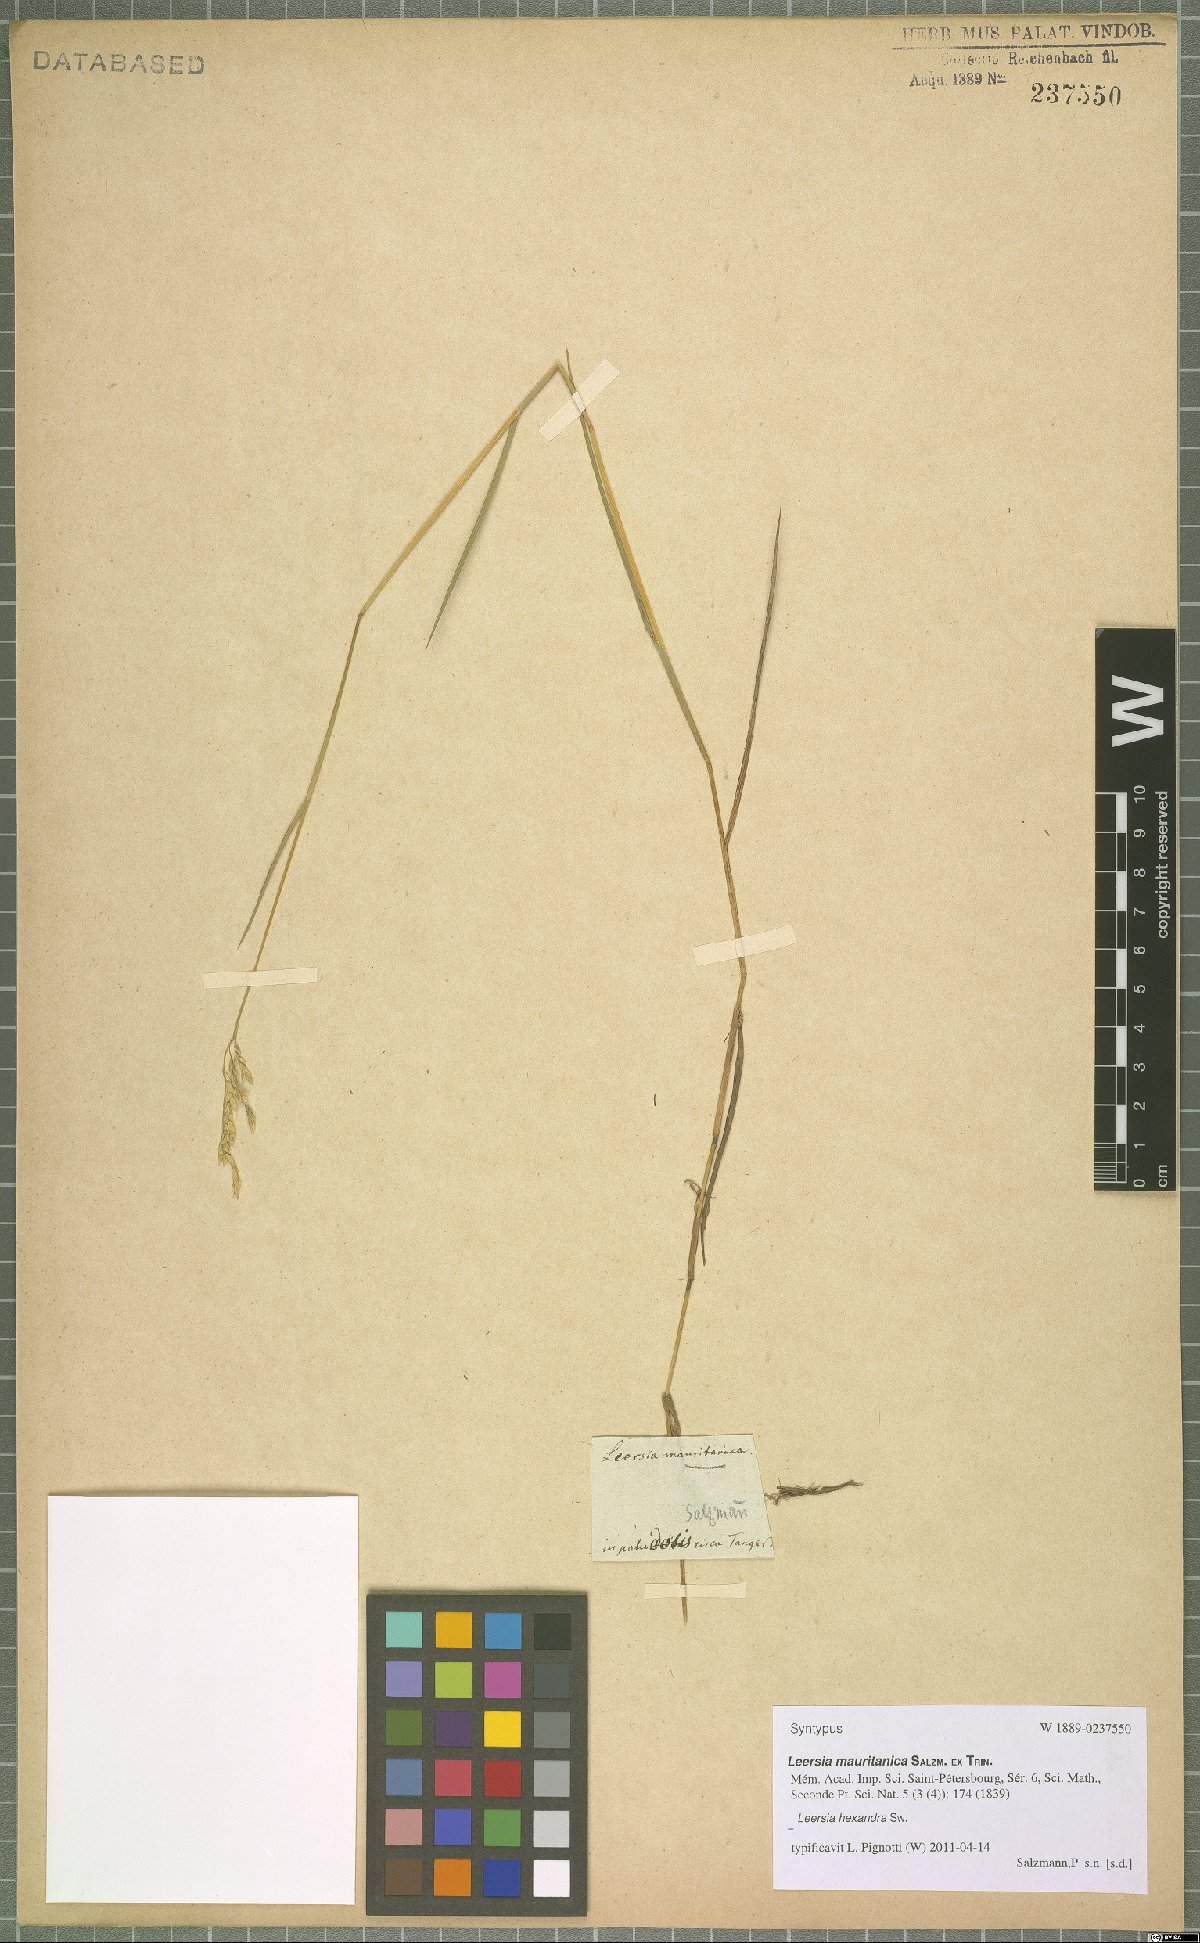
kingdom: Plantae
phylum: Tracheophyta
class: Liliopsida
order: Poales
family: Poaceae
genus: Leersia
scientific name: Leersia hexandra
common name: Southern cut grass
